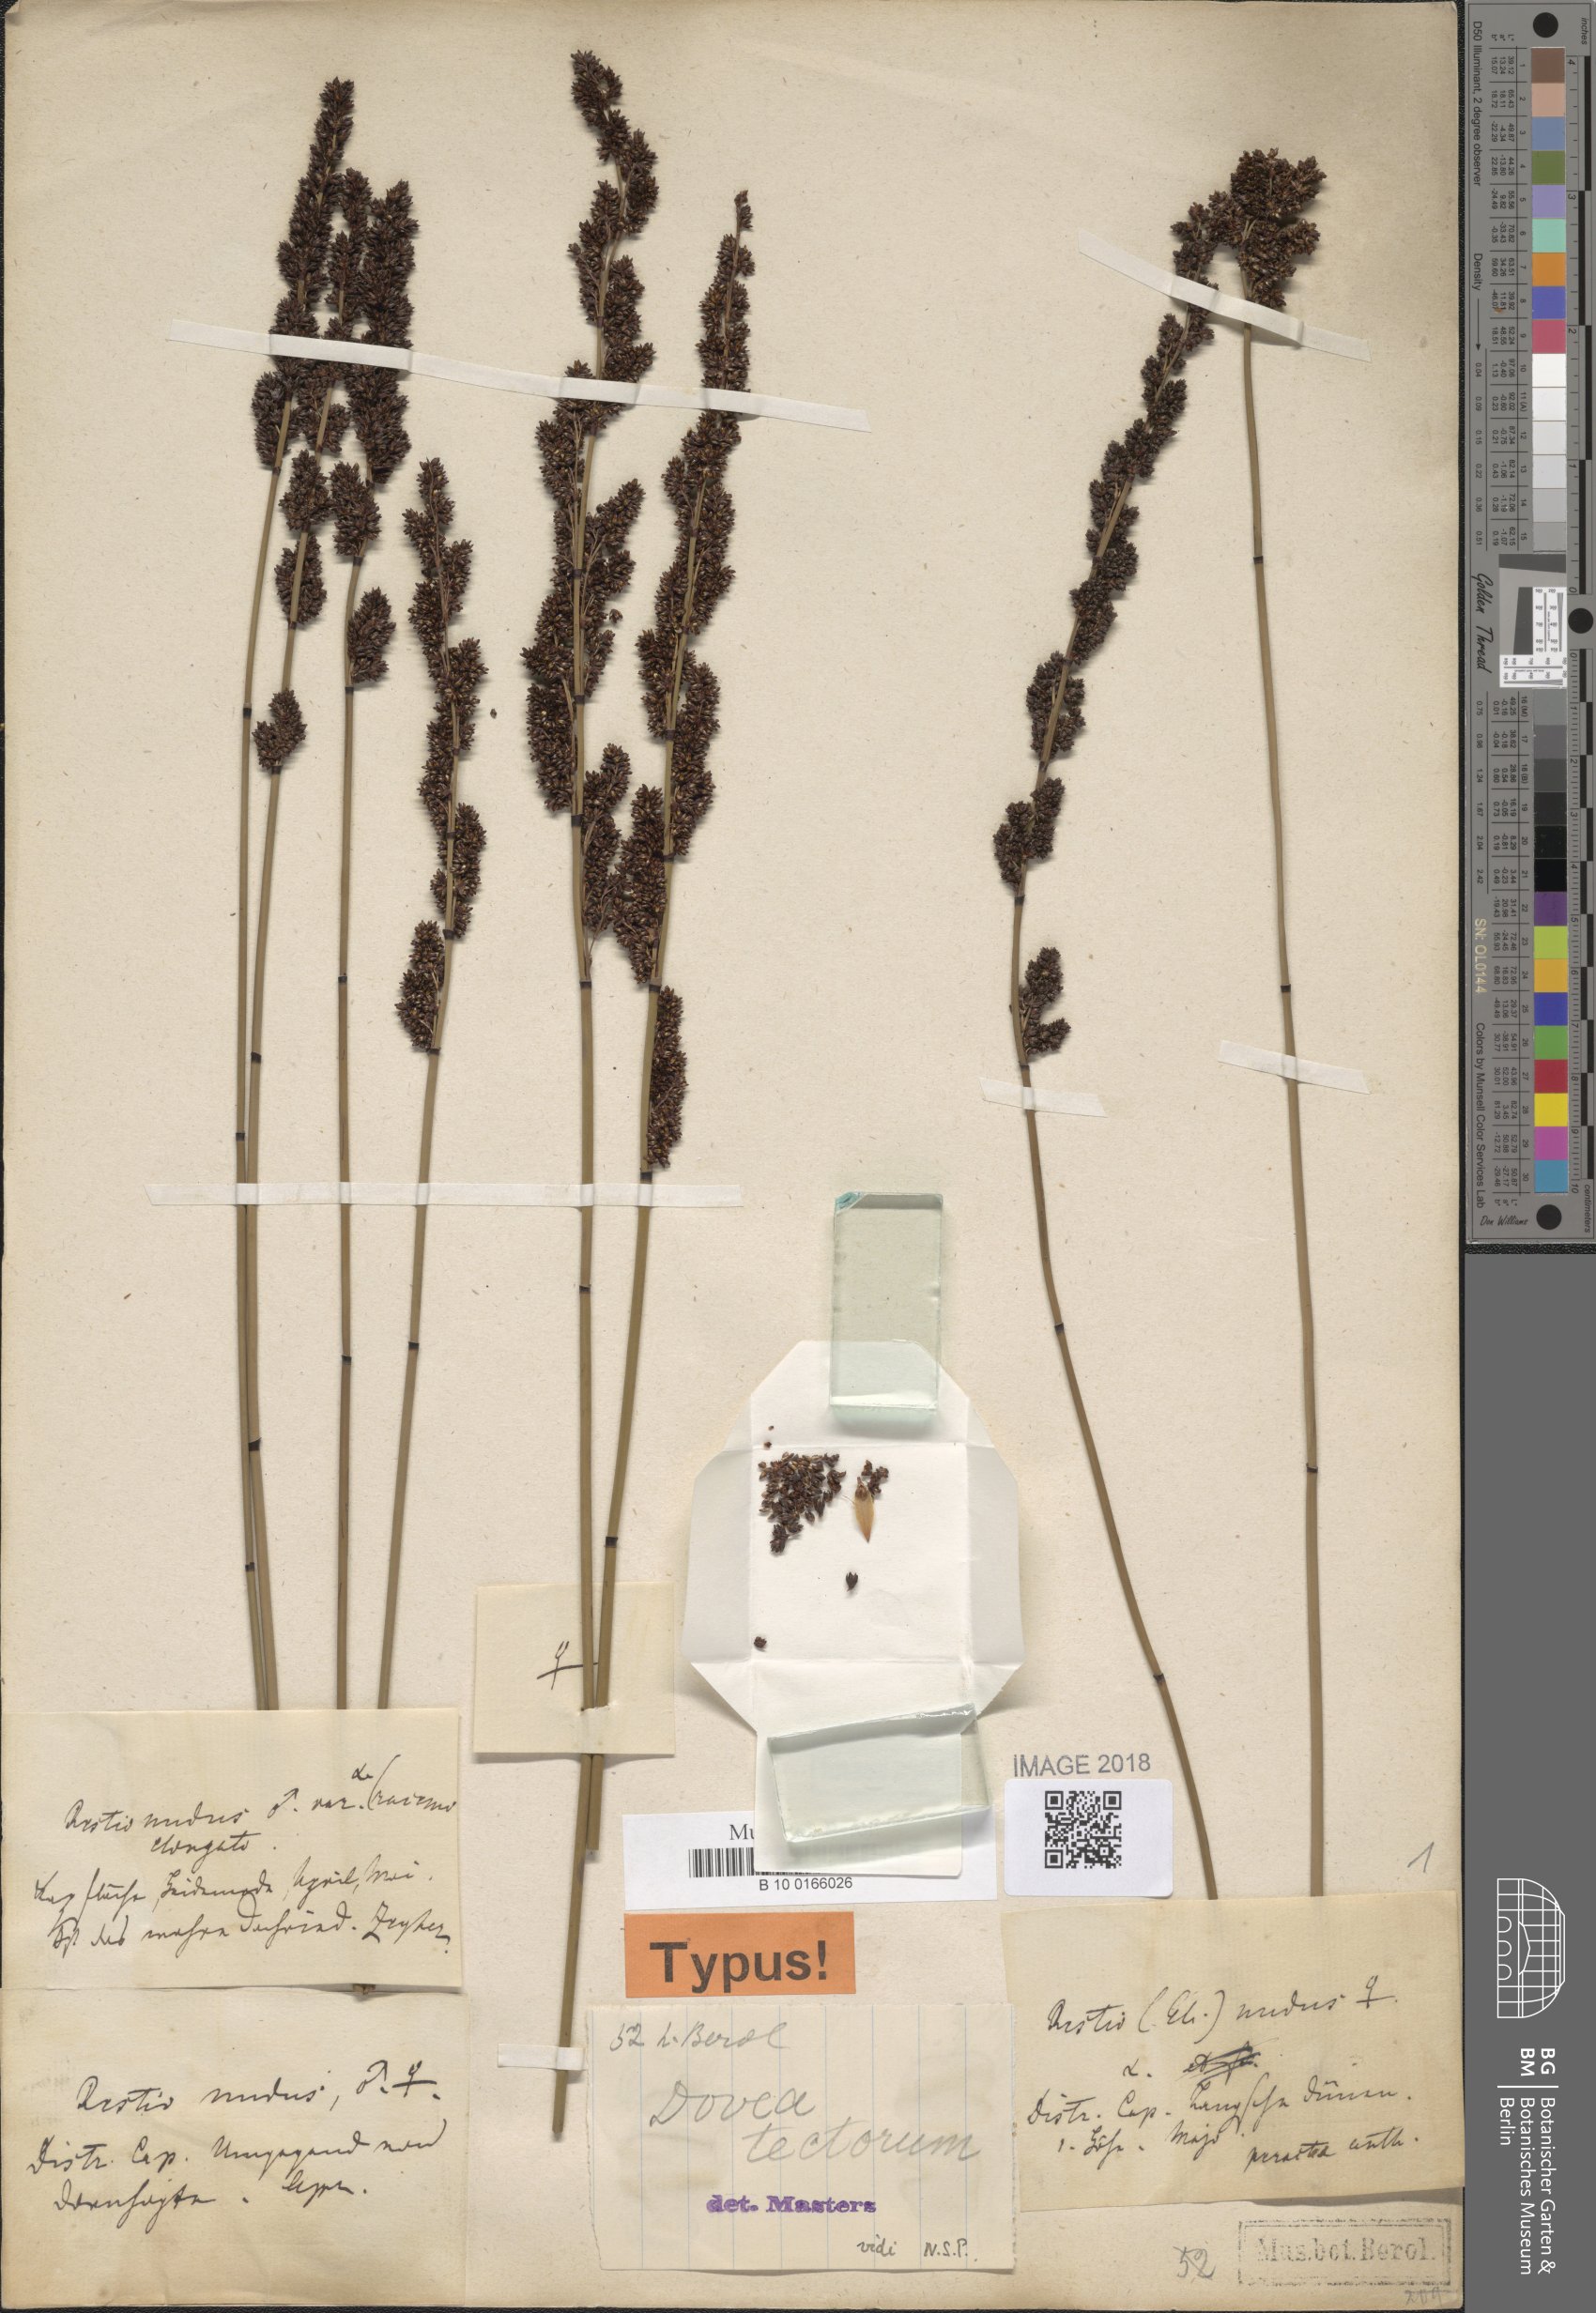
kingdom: Plantae
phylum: Tracheophyta
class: Liliopsida
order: Poales
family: Restionaceae
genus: Elegia
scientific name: Elegia tectorum
